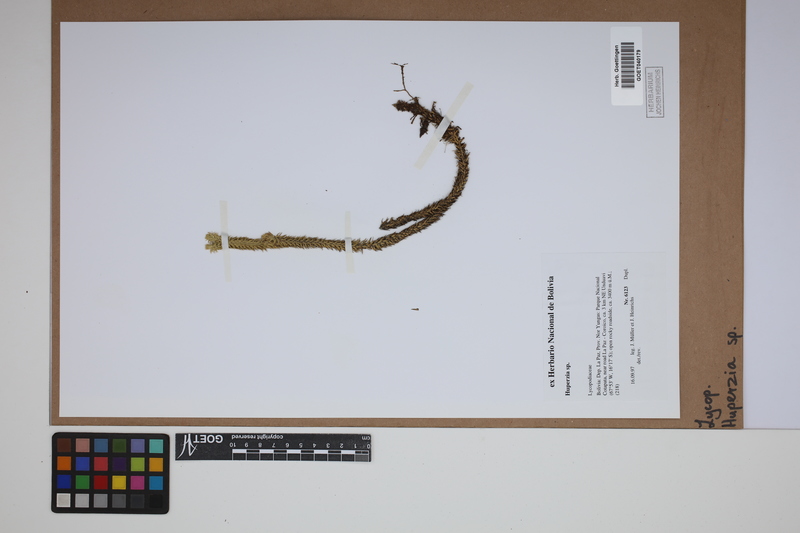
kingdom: Plantae
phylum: Tracheophyta
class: Lycopodiopsida
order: Lycopodiales
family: Lycopodiaceae
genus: Phlegmariurus
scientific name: Phlegmariurus
